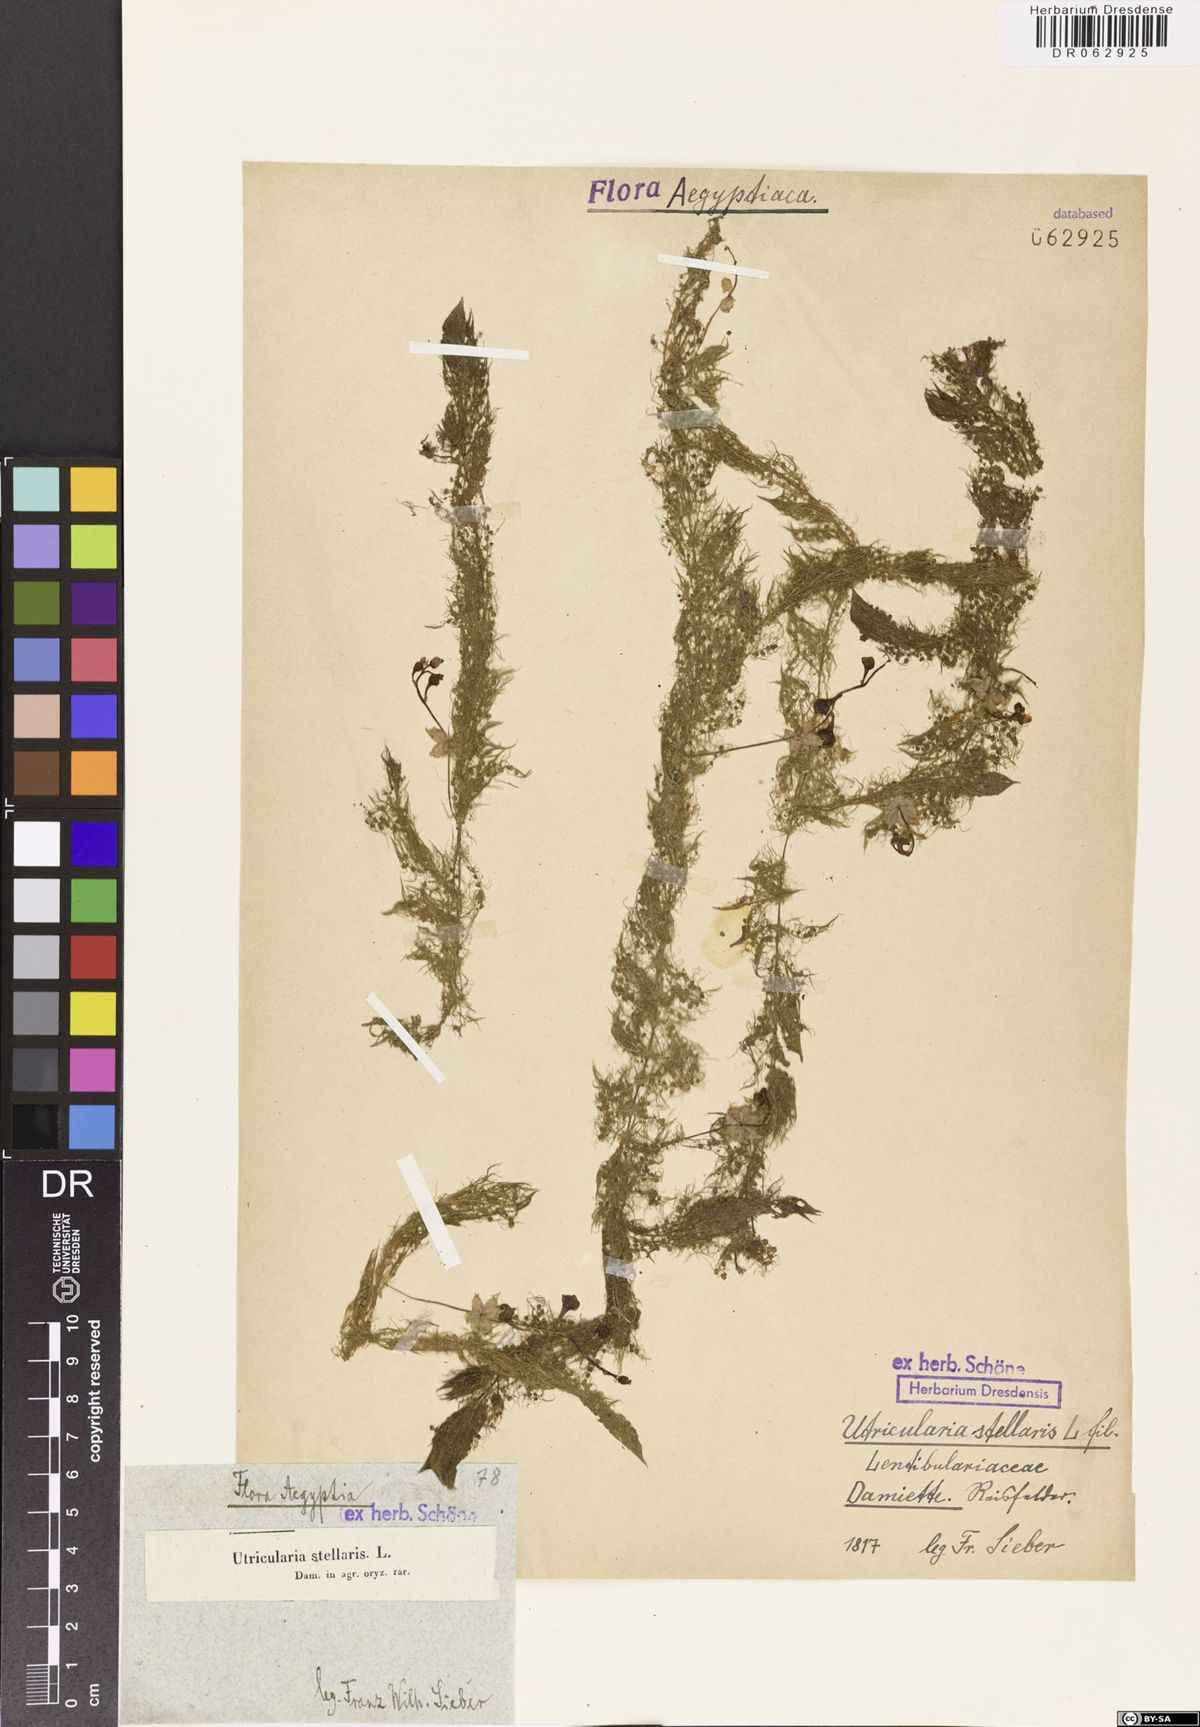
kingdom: Plantae
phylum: Tracheophyta
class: Magnoliopsida
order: Lamiales
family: Lentibulariaceae
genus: Utricularia
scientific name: Utricularia stellaris
